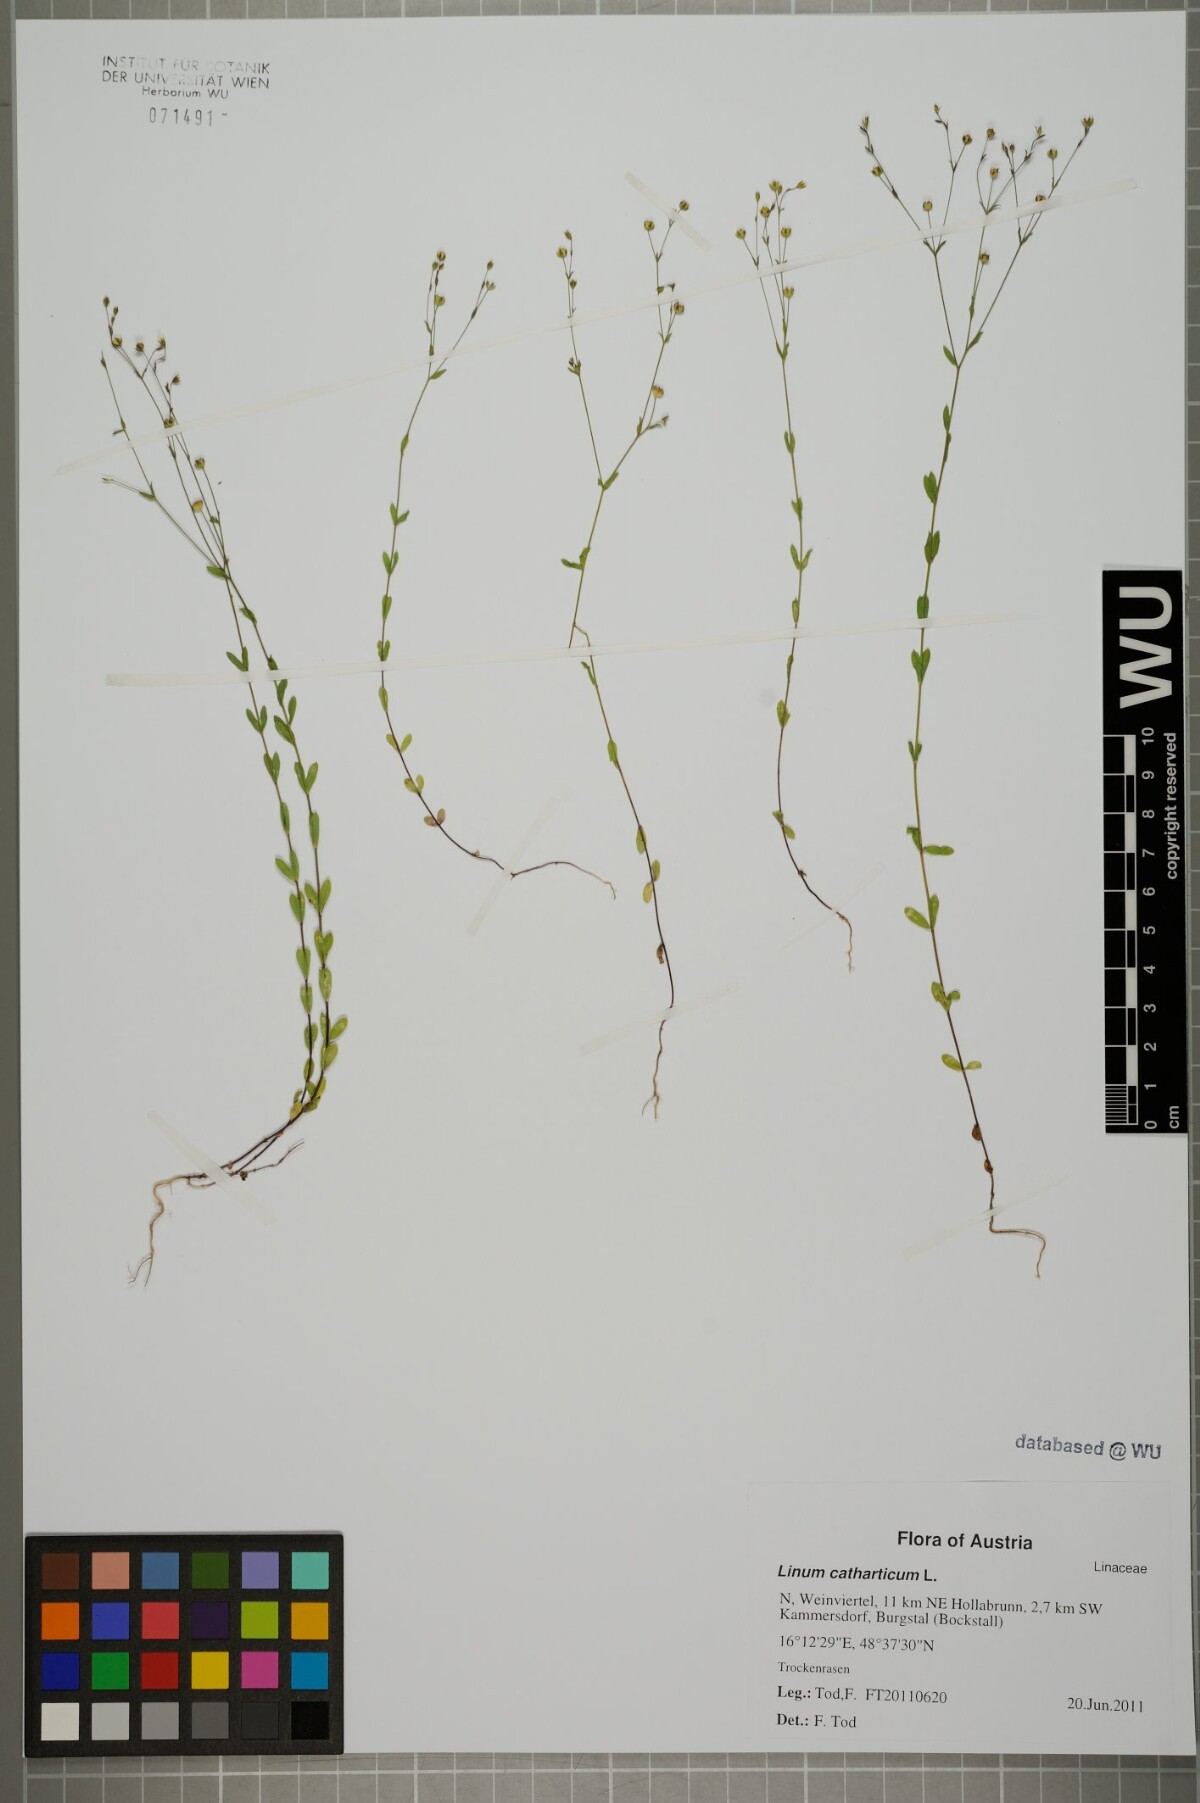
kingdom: Plantae
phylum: Tracheophyta
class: Magnoliopsida
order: Malpighiales
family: Linaceae
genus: Linum
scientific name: Linum catharticum
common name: Fairy flax
